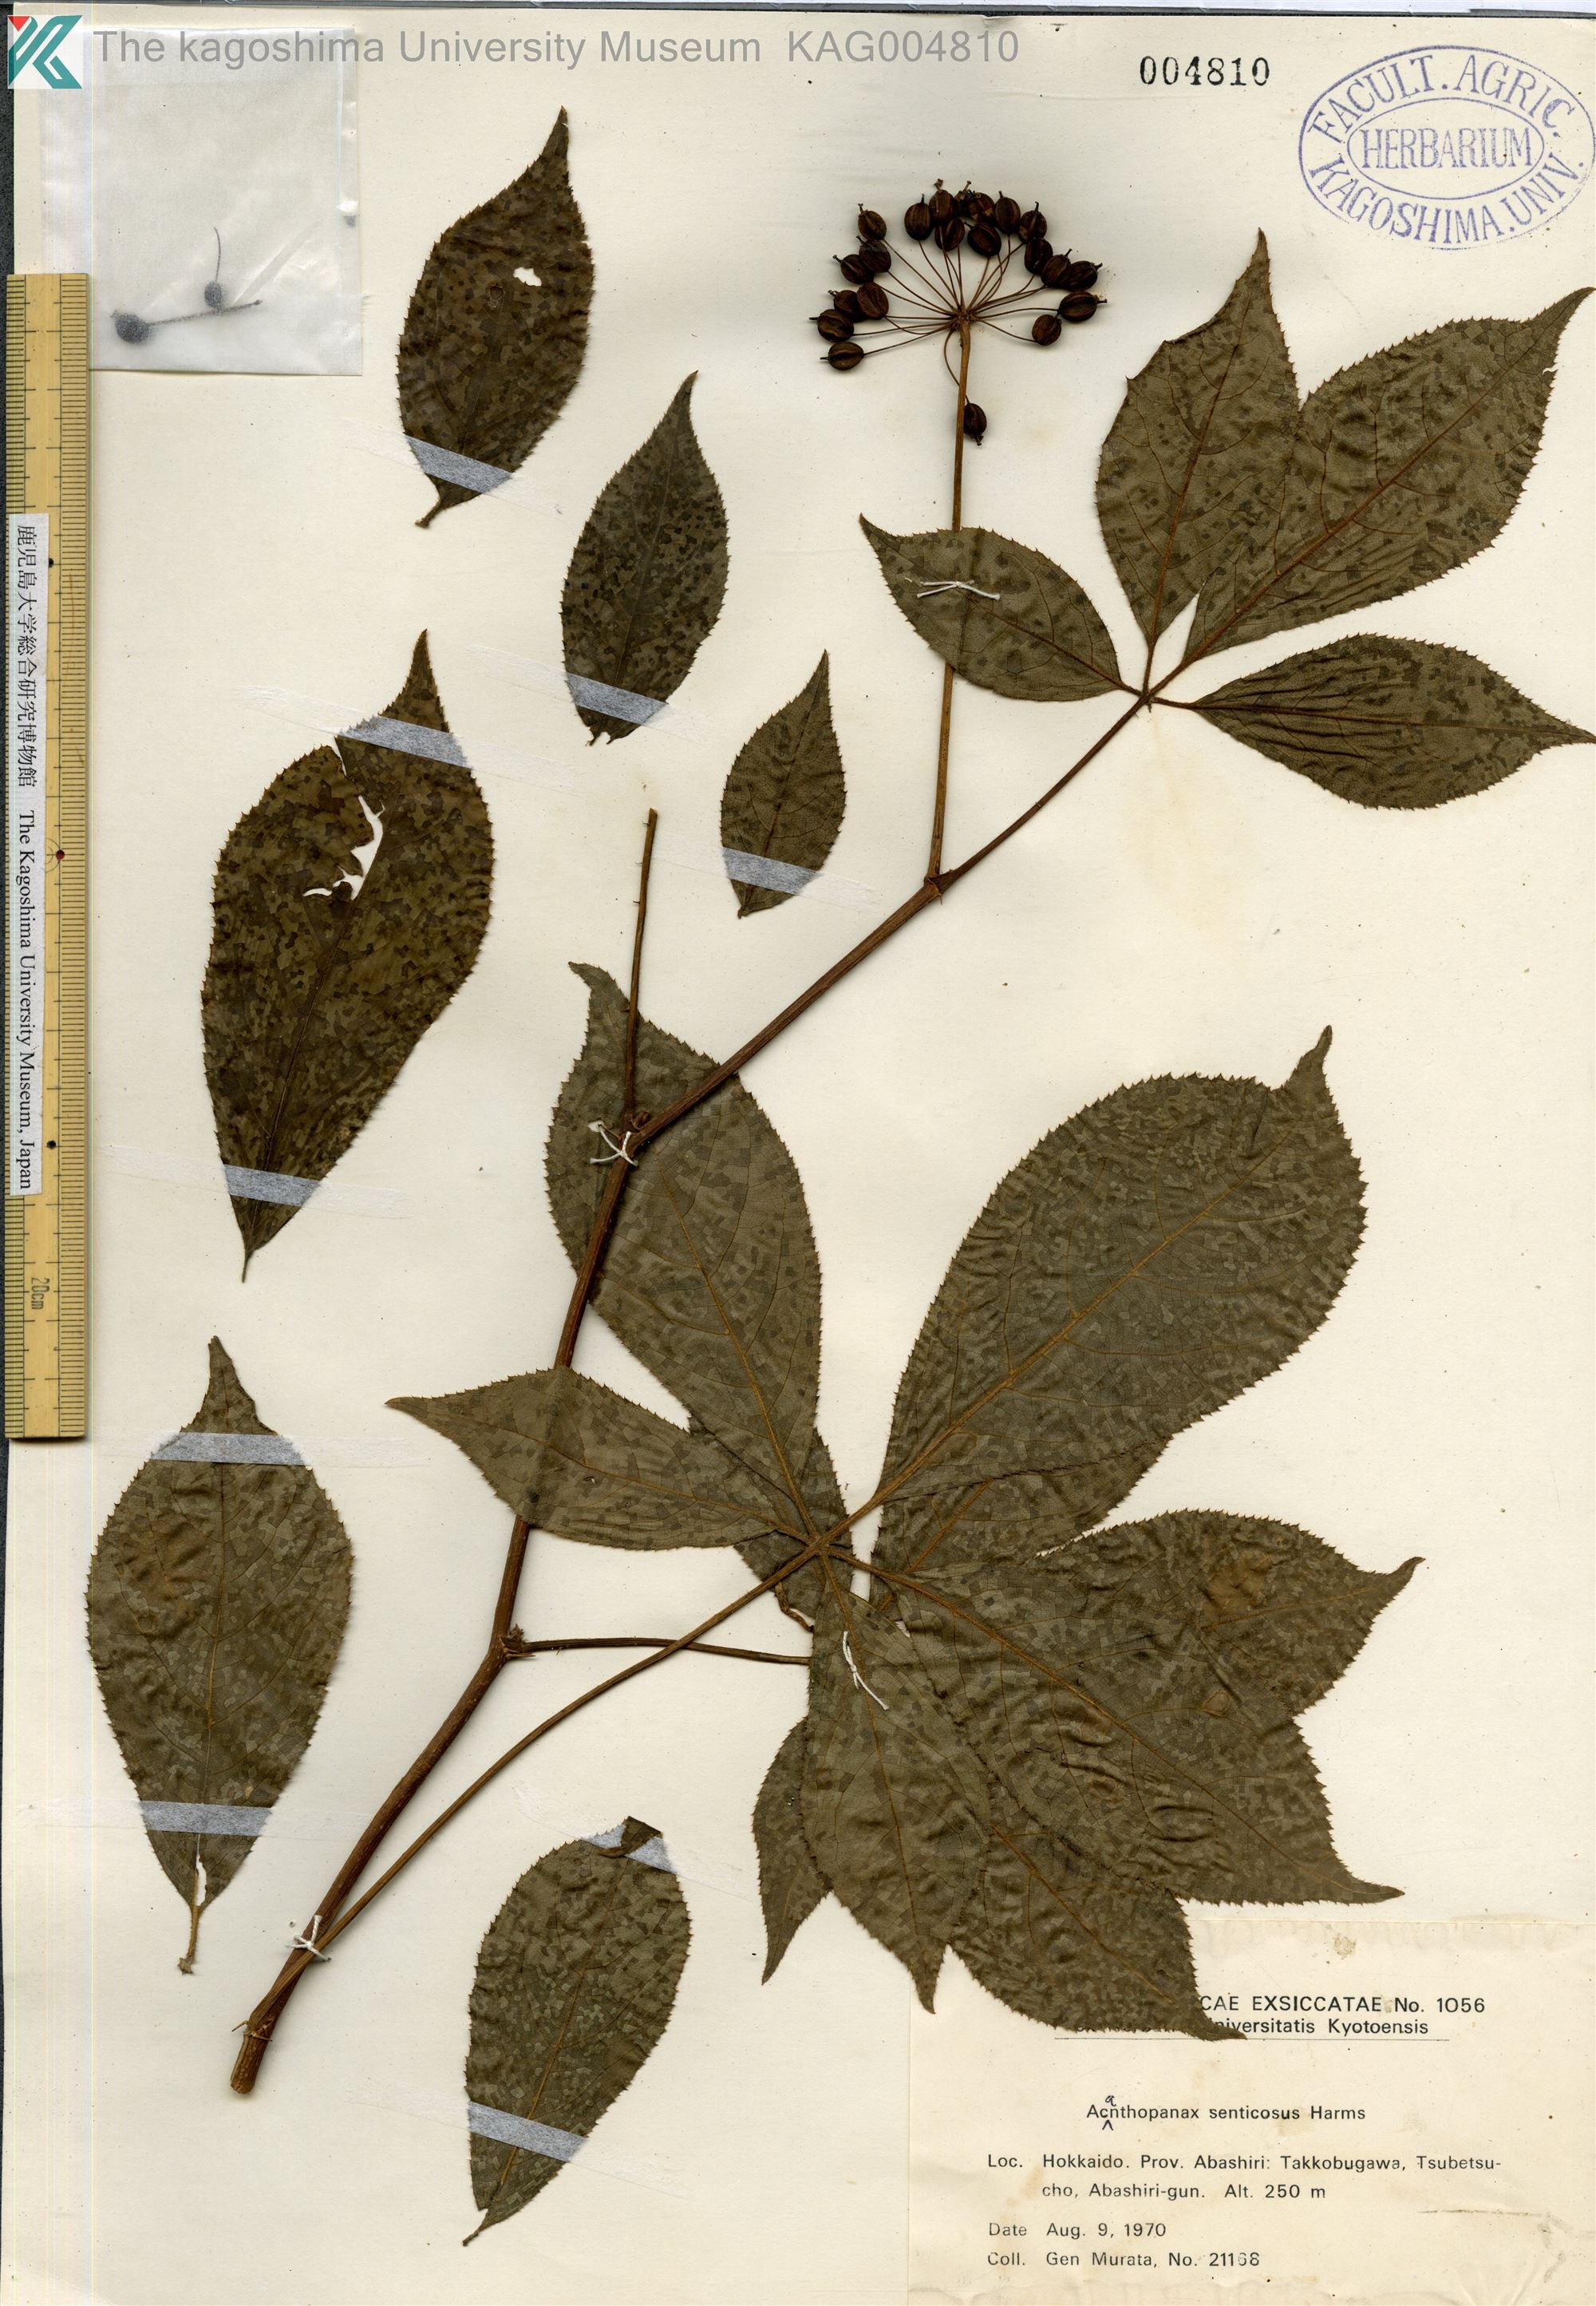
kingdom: Plantae
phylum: Tracheophyta
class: Magnoliopsida
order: Apiales
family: Araliaceae
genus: Eleutherococcus
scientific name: Eleutherococcus senticosus
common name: Siberian-ginseng
